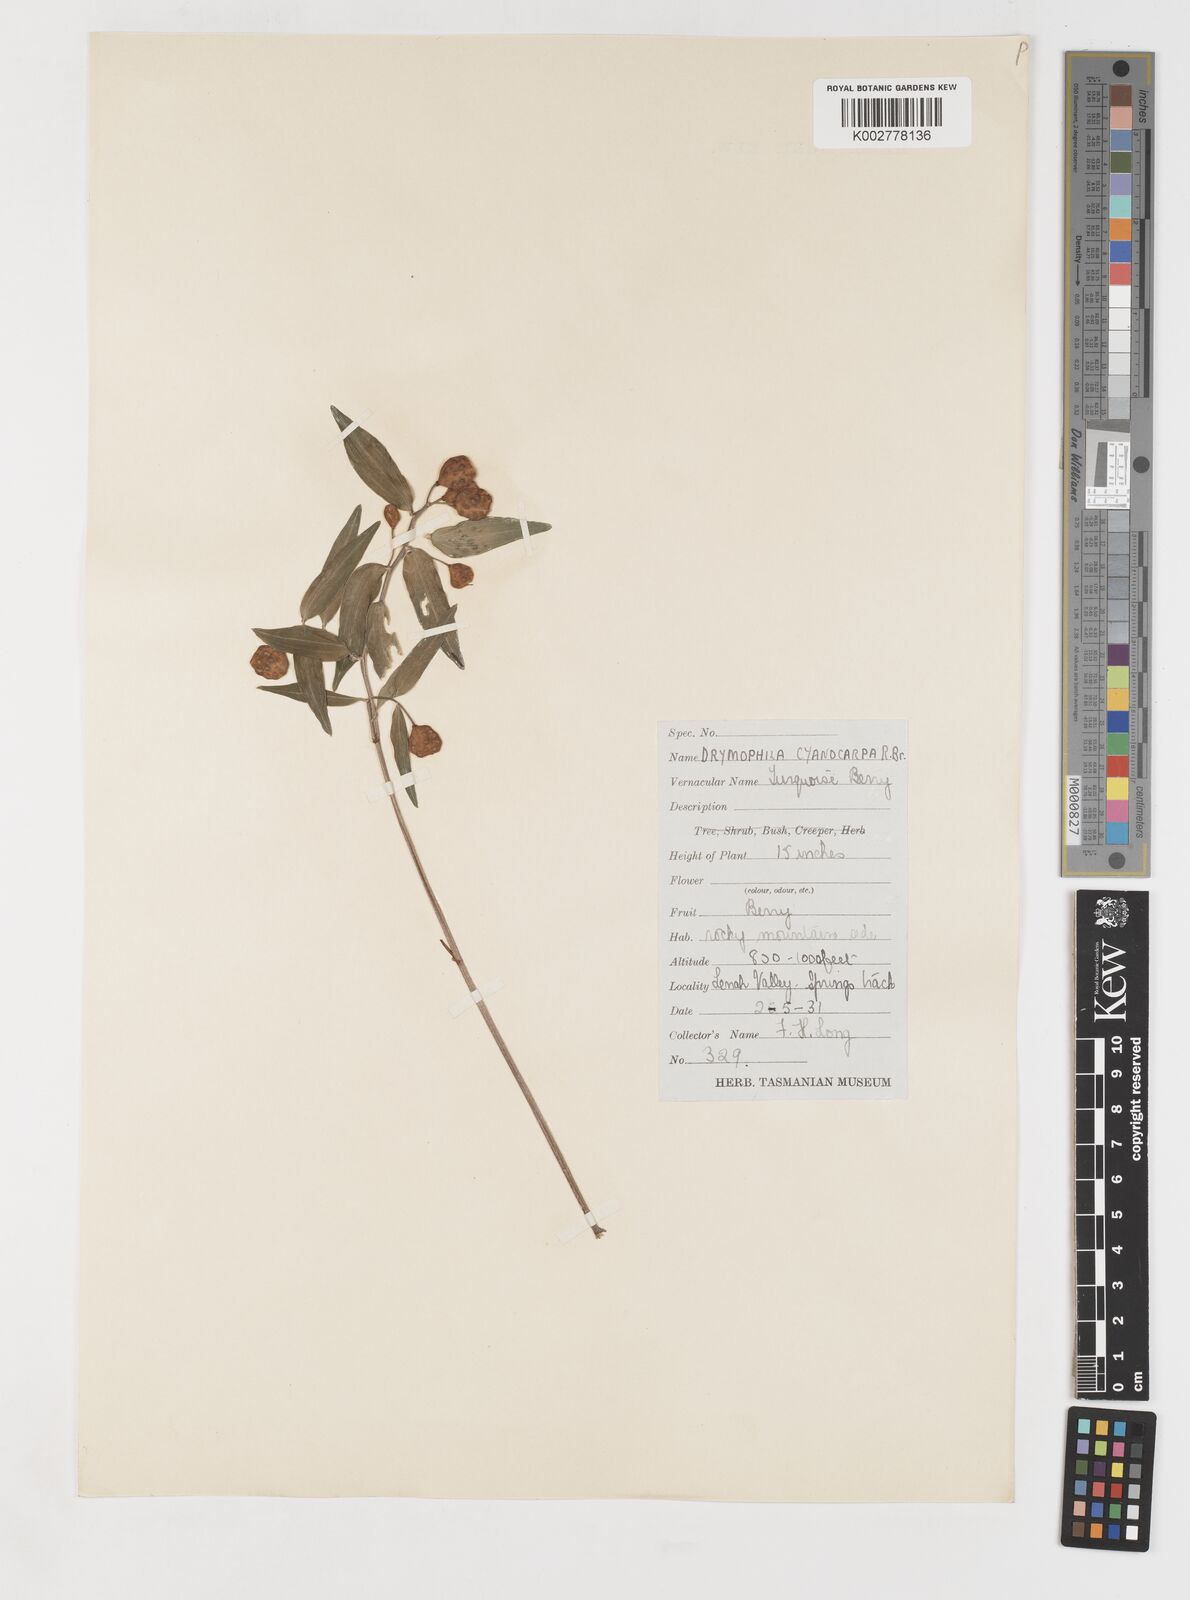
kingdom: Plantae
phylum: Tracheophyta
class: Liliopsida
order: Liliales
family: Alstroemeriaceae
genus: Drymophila
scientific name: Drymophila cyanocarpa
